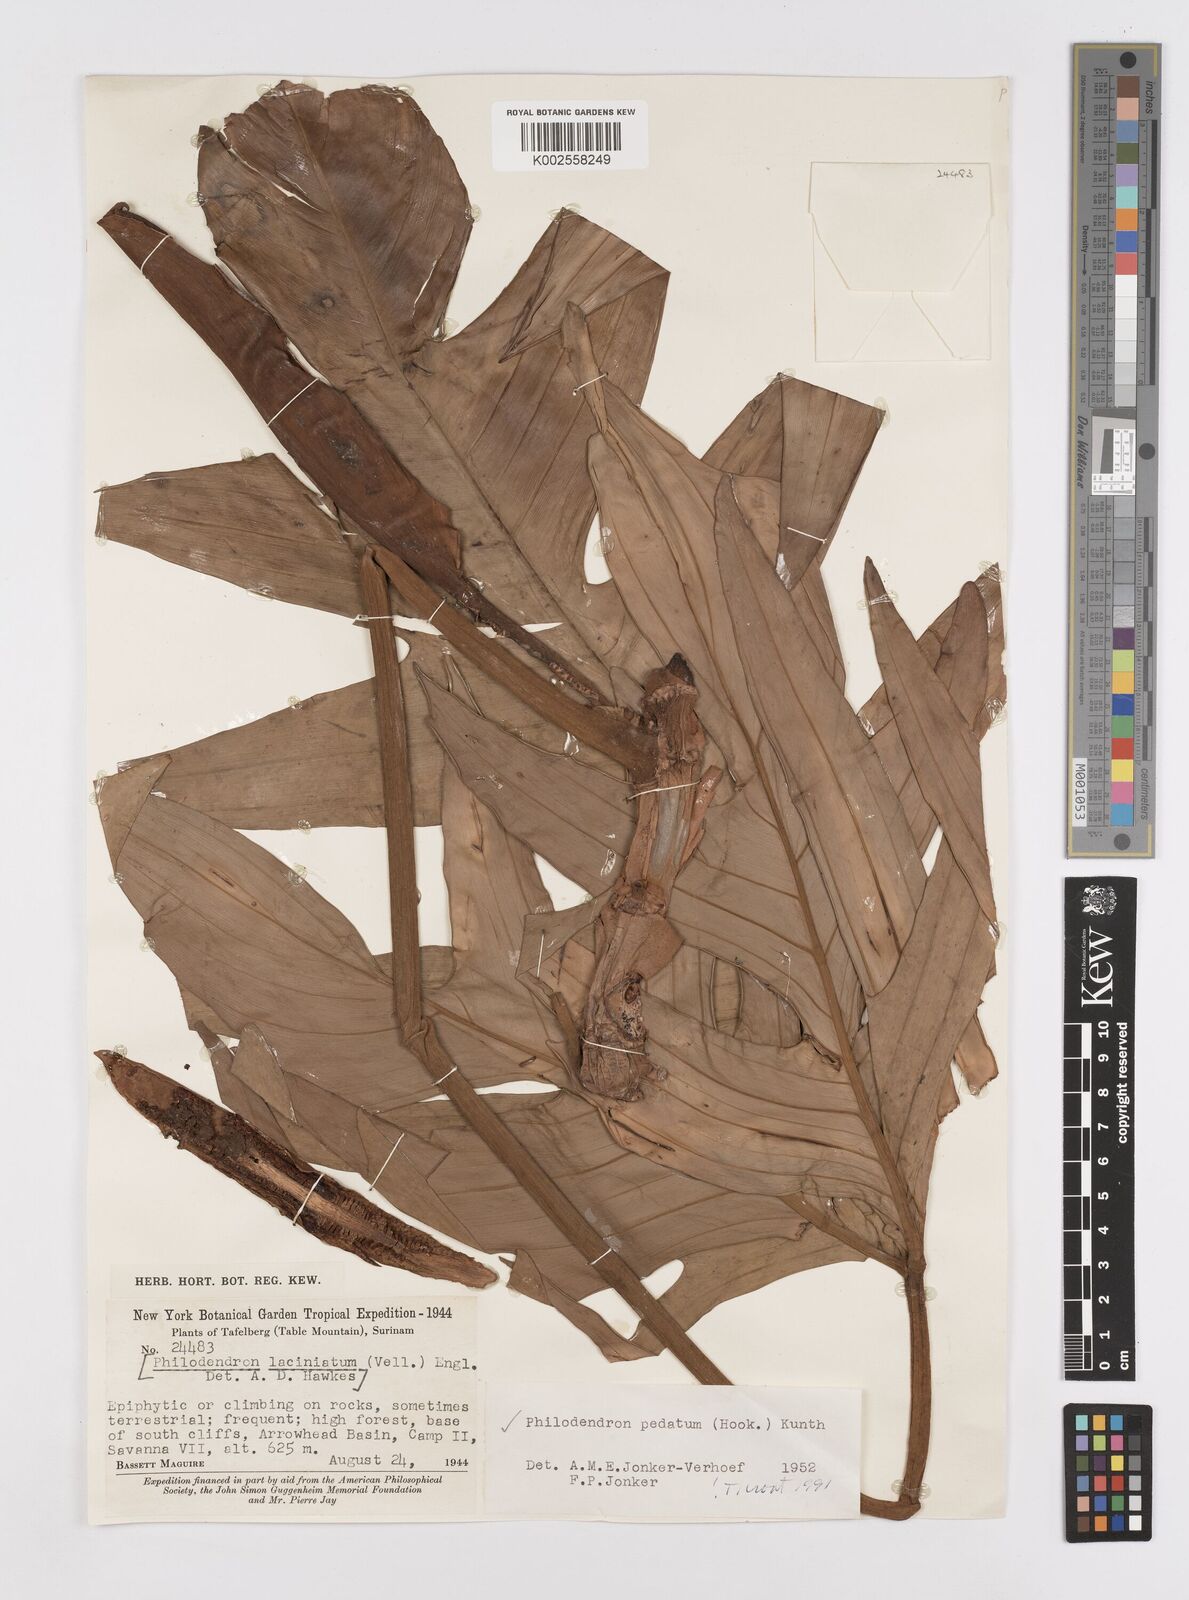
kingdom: Plantae
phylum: Tracheophyta
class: Liliopsida
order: Alismatales
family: Araceae
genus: Philodendron
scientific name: Philodendron pedatum
